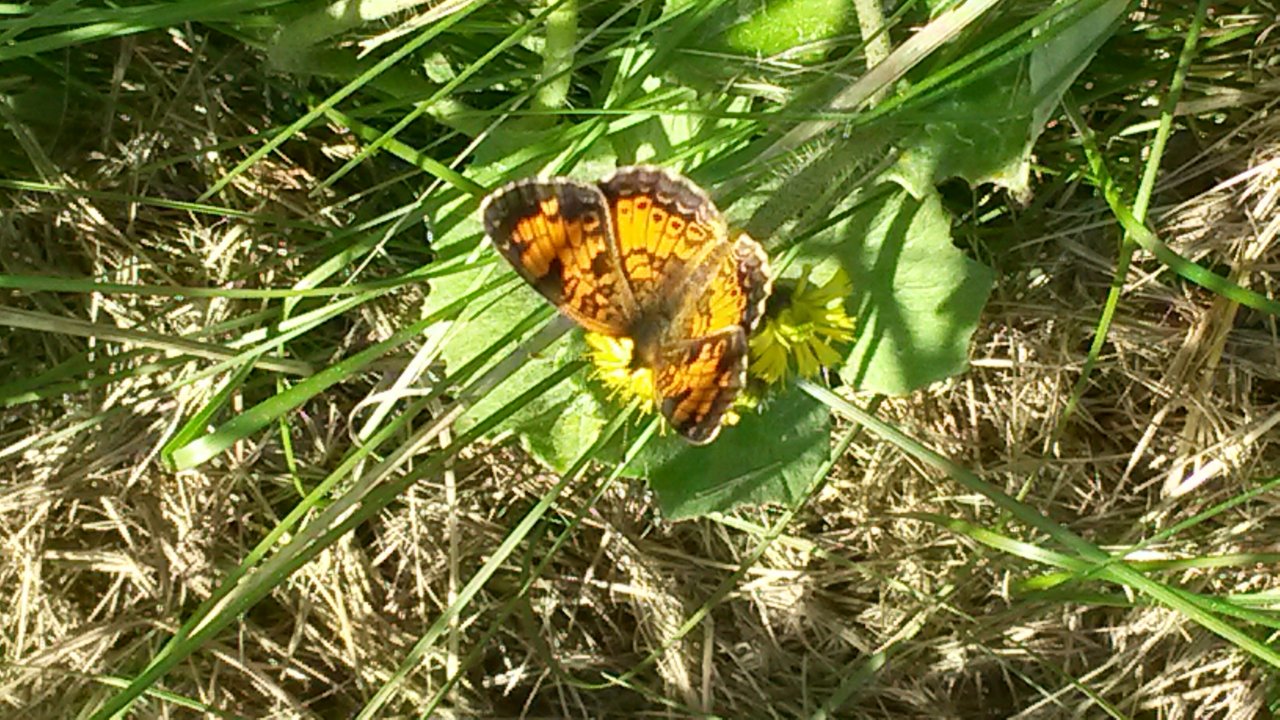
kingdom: Animalia
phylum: Arthropoda
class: Insecta
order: Lepidoptera
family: Nymphalidae
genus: Phyciodes
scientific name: Phyciodes tharos
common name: Northern Crescent
